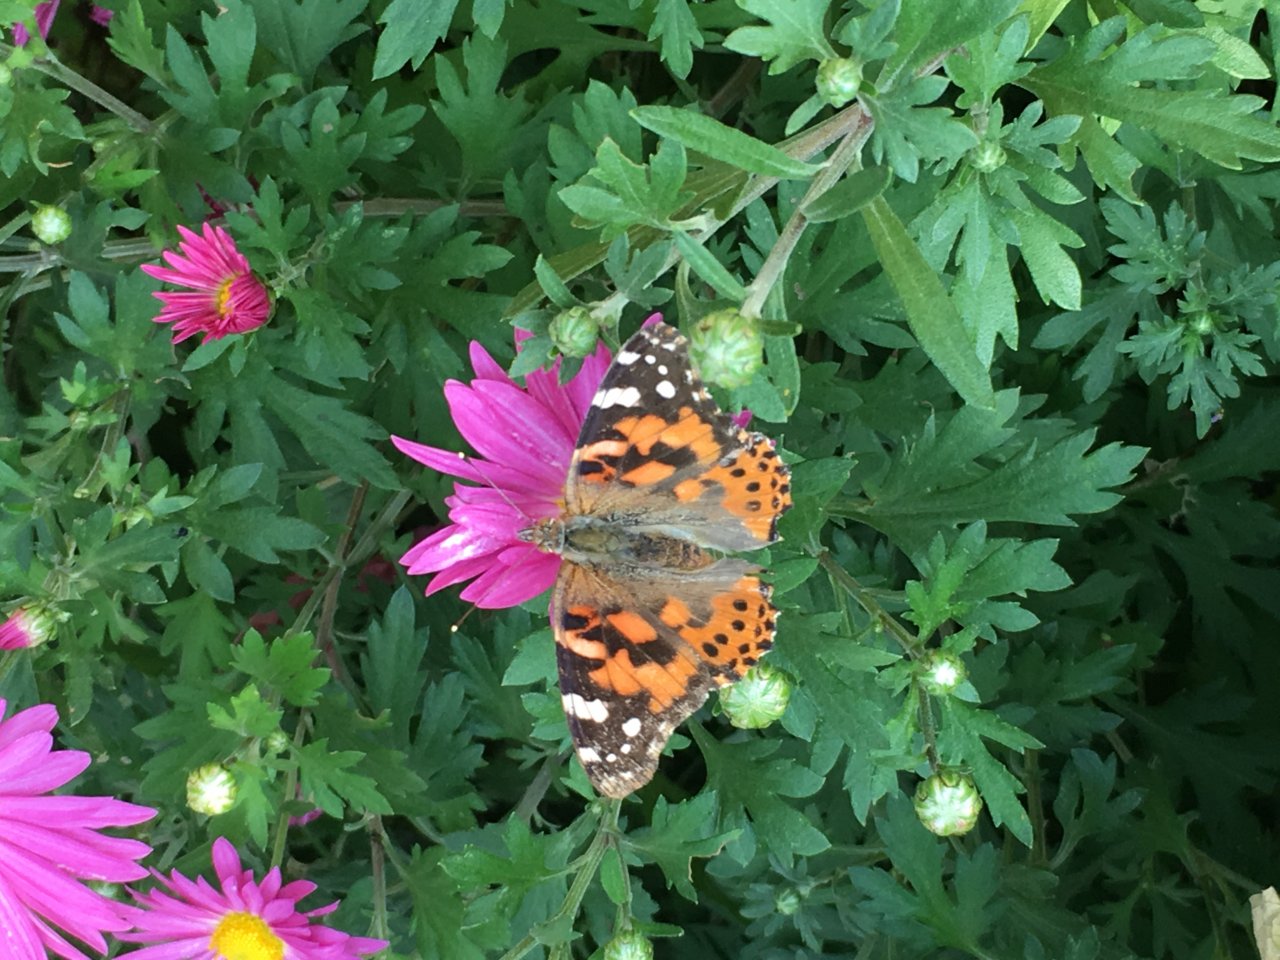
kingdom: Animalia
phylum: Arthropoda
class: Insecta
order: Lepidoptera
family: Nymphalidae
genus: Vanessa
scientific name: Vanessa cardui
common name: Painted Lady
